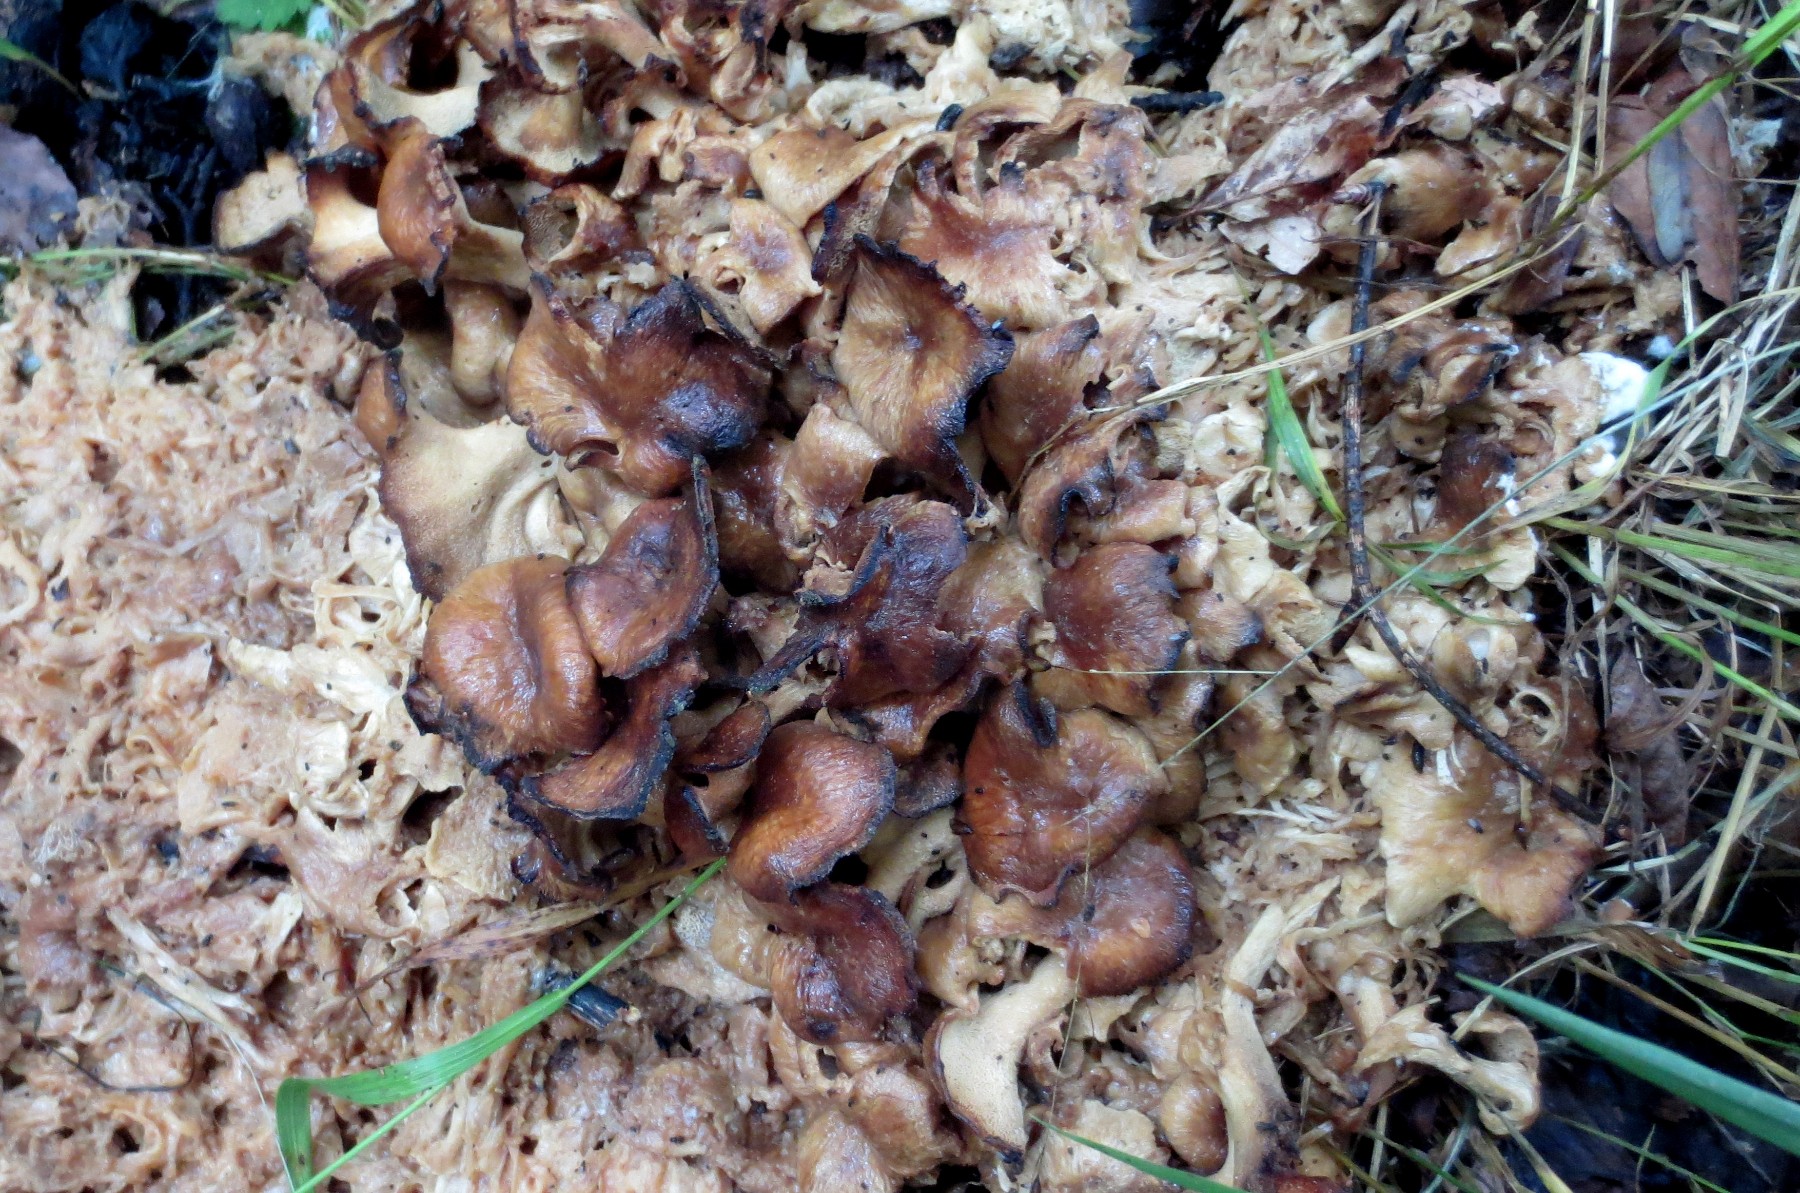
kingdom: Fungi
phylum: Basidiomycota
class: Agaricomycetes
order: Polyporales
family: Polyporaceae
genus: Polyporus
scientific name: Polyporus umbellatus
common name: skærmformet stilkporesvamp
